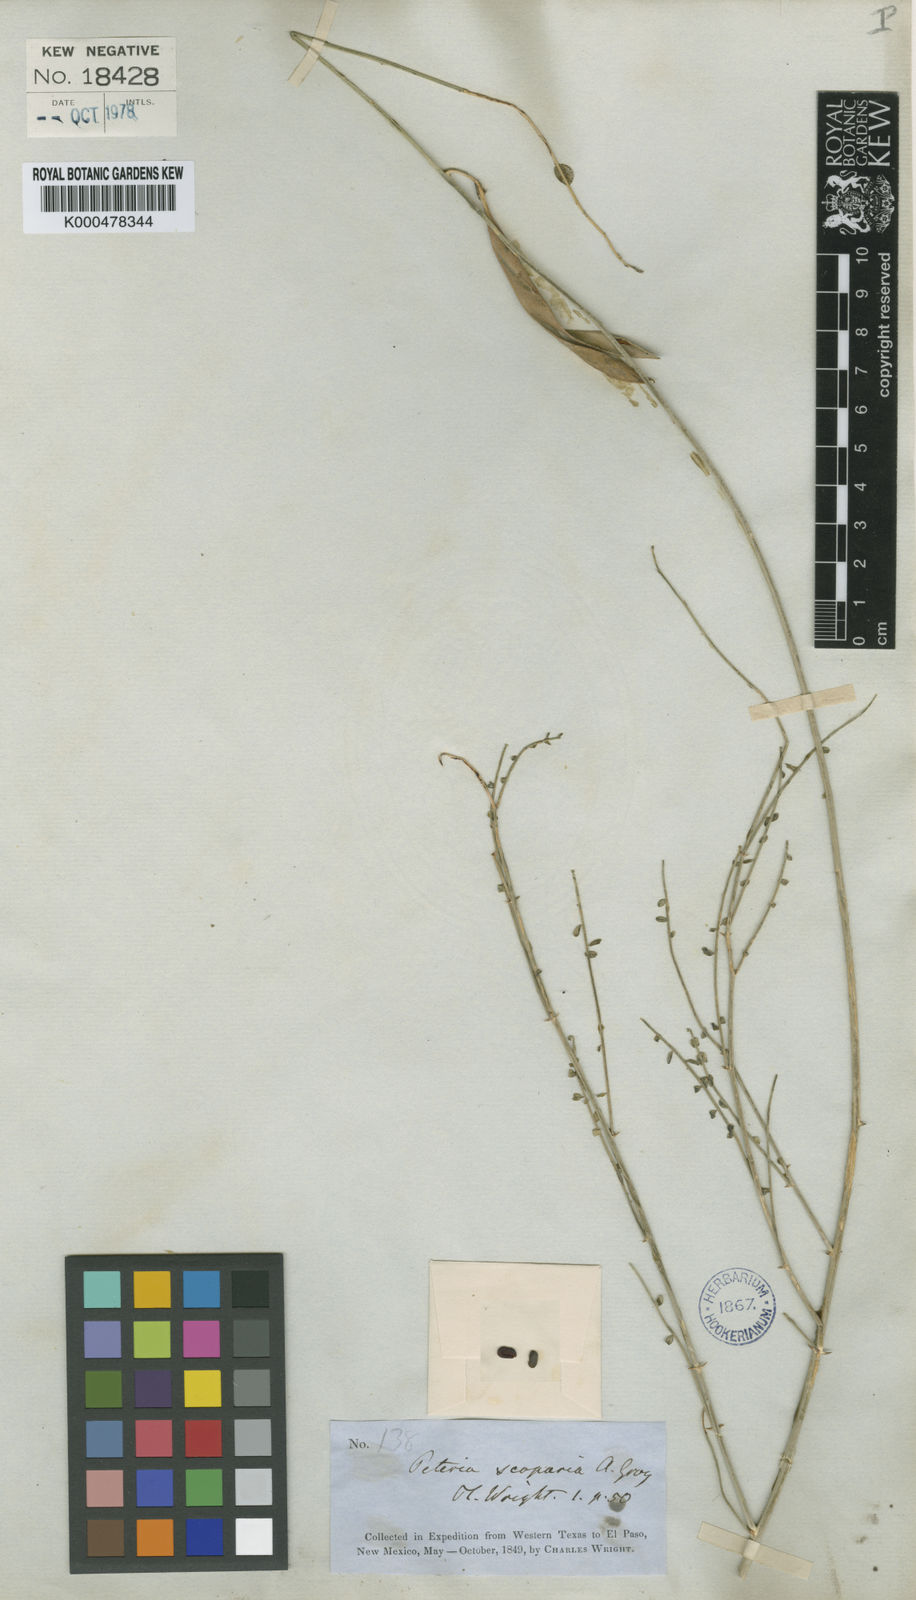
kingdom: Plantae
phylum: Tracheophyta
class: Magnoliopsida
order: Fabales
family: Fabaceae
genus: Peteria
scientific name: Peteria scoparia
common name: Camote del monte
